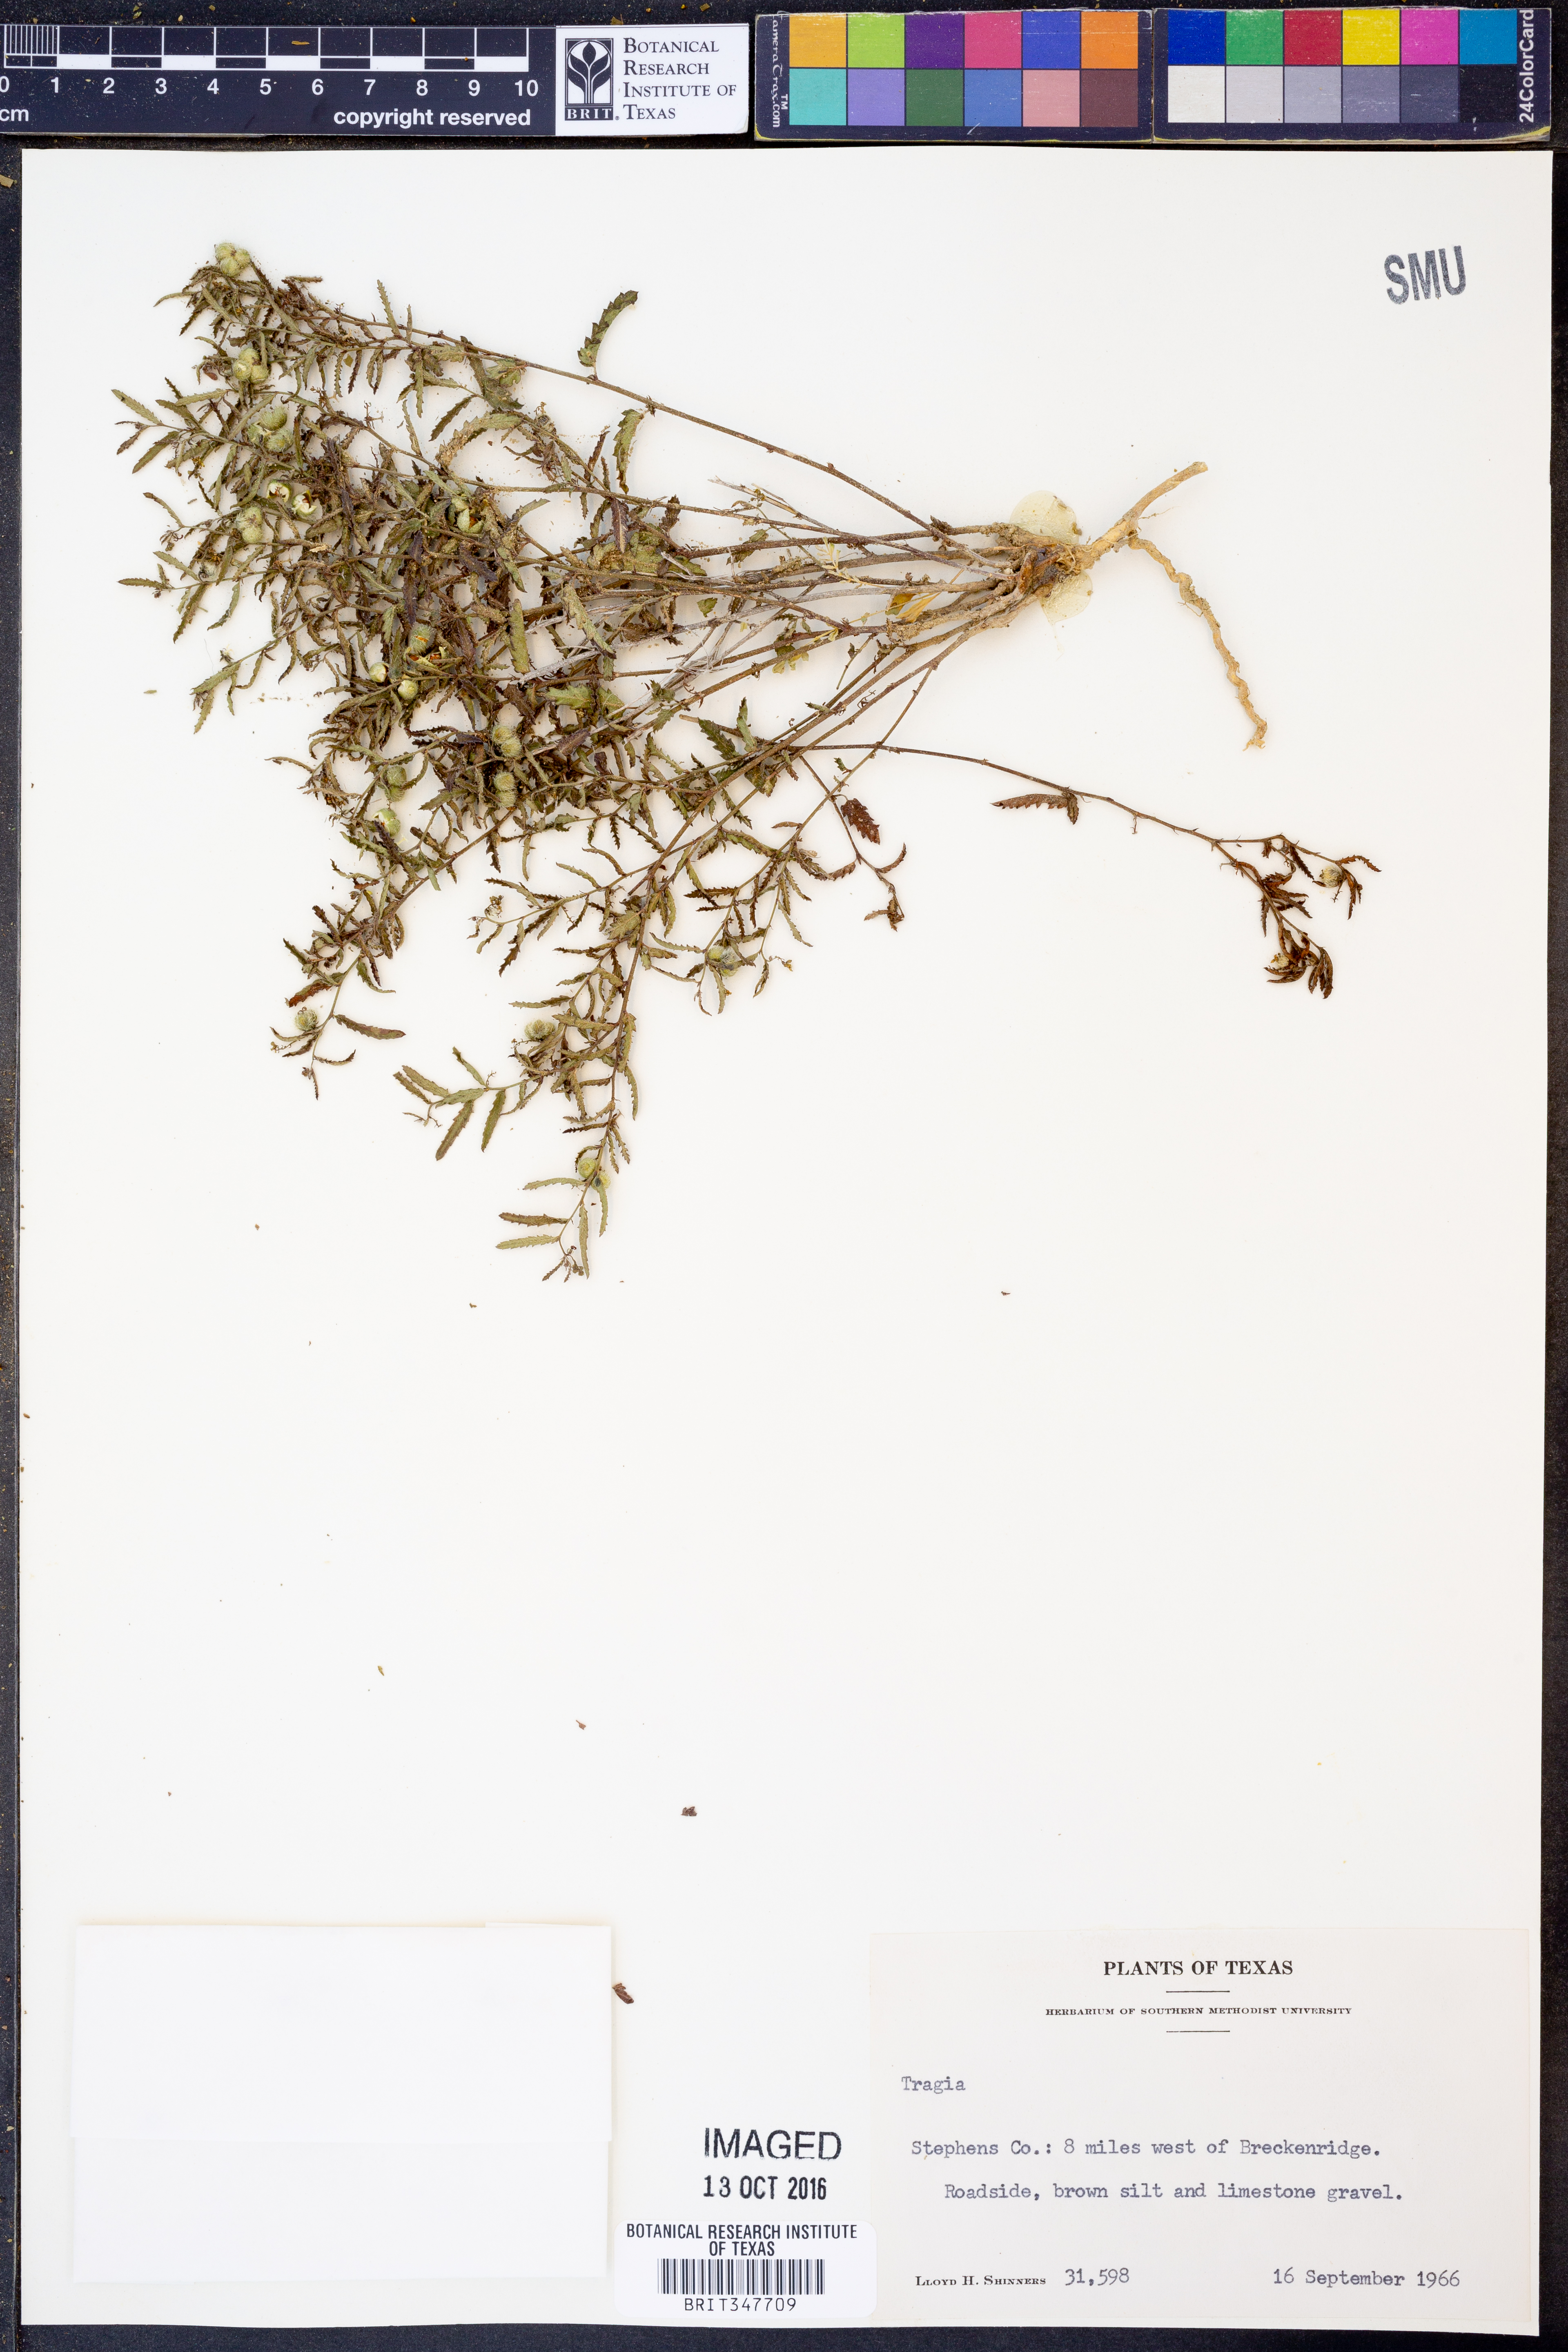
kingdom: Plantae
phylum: Tracheophyta
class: Magnoliopsida
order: Malpighiales
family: Euphorbiaceae
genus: Tragia
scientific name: Tragia
